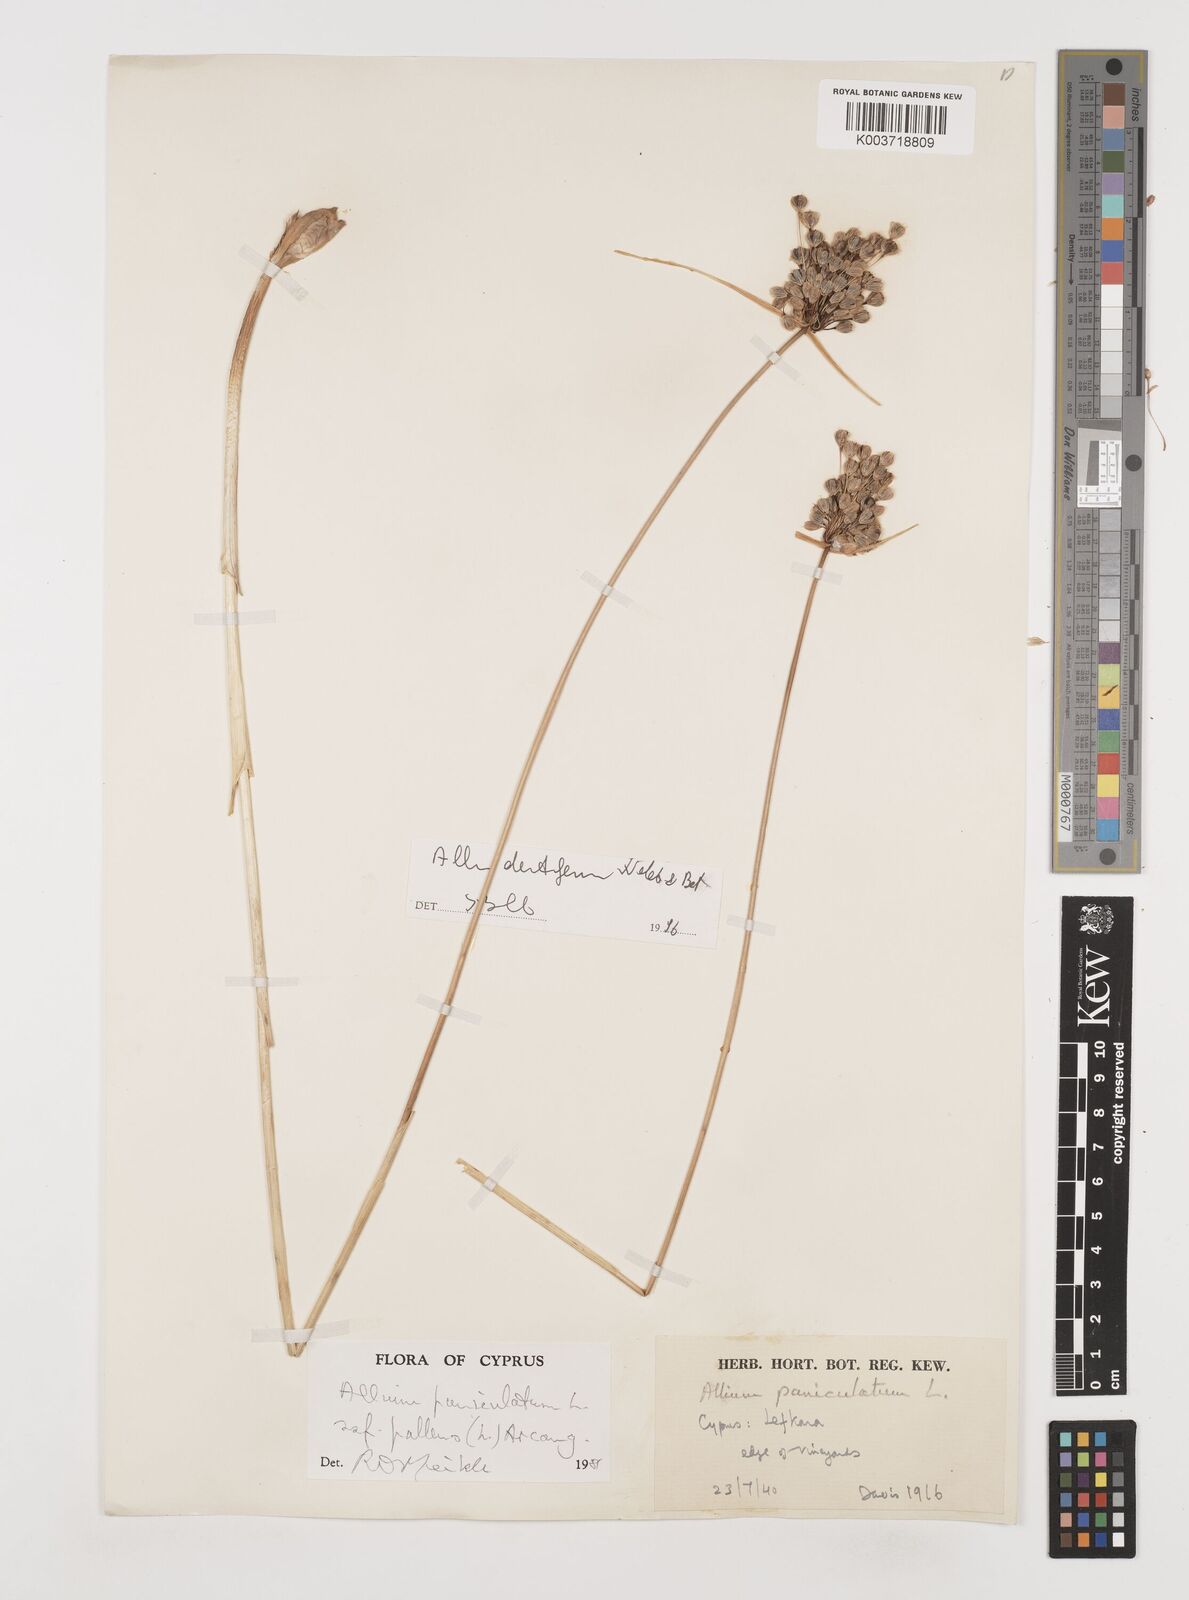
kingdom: Plantae
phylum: Tracheophyta
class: Liliopsida
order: Asparagales
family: Amaryllidaceae
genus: Allium
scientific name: Allium paniculatum
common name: Pale garlic
